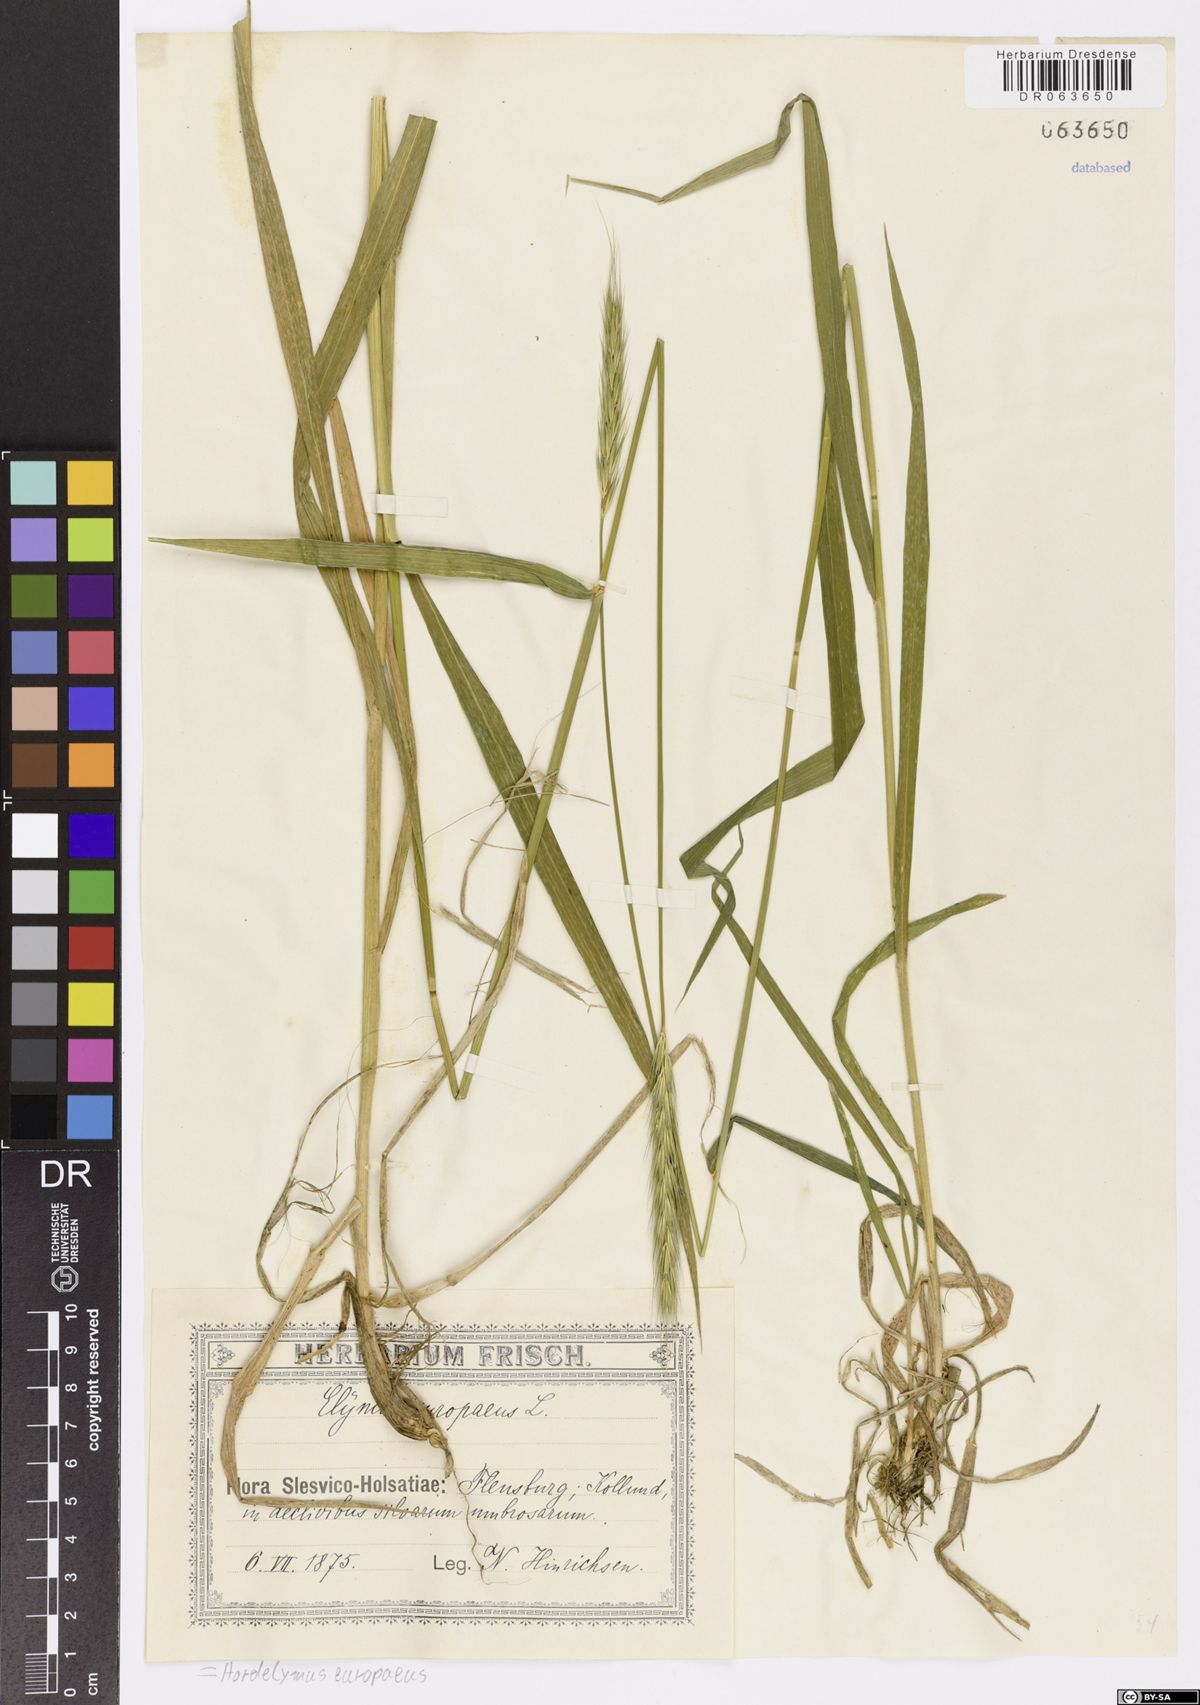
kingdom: Plantae
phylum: Tracheophyta
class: Liliopsida
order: Poales
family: Poaceae
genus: Hordelymus
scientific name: Hordelymus europaeus
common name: Wood-barley
